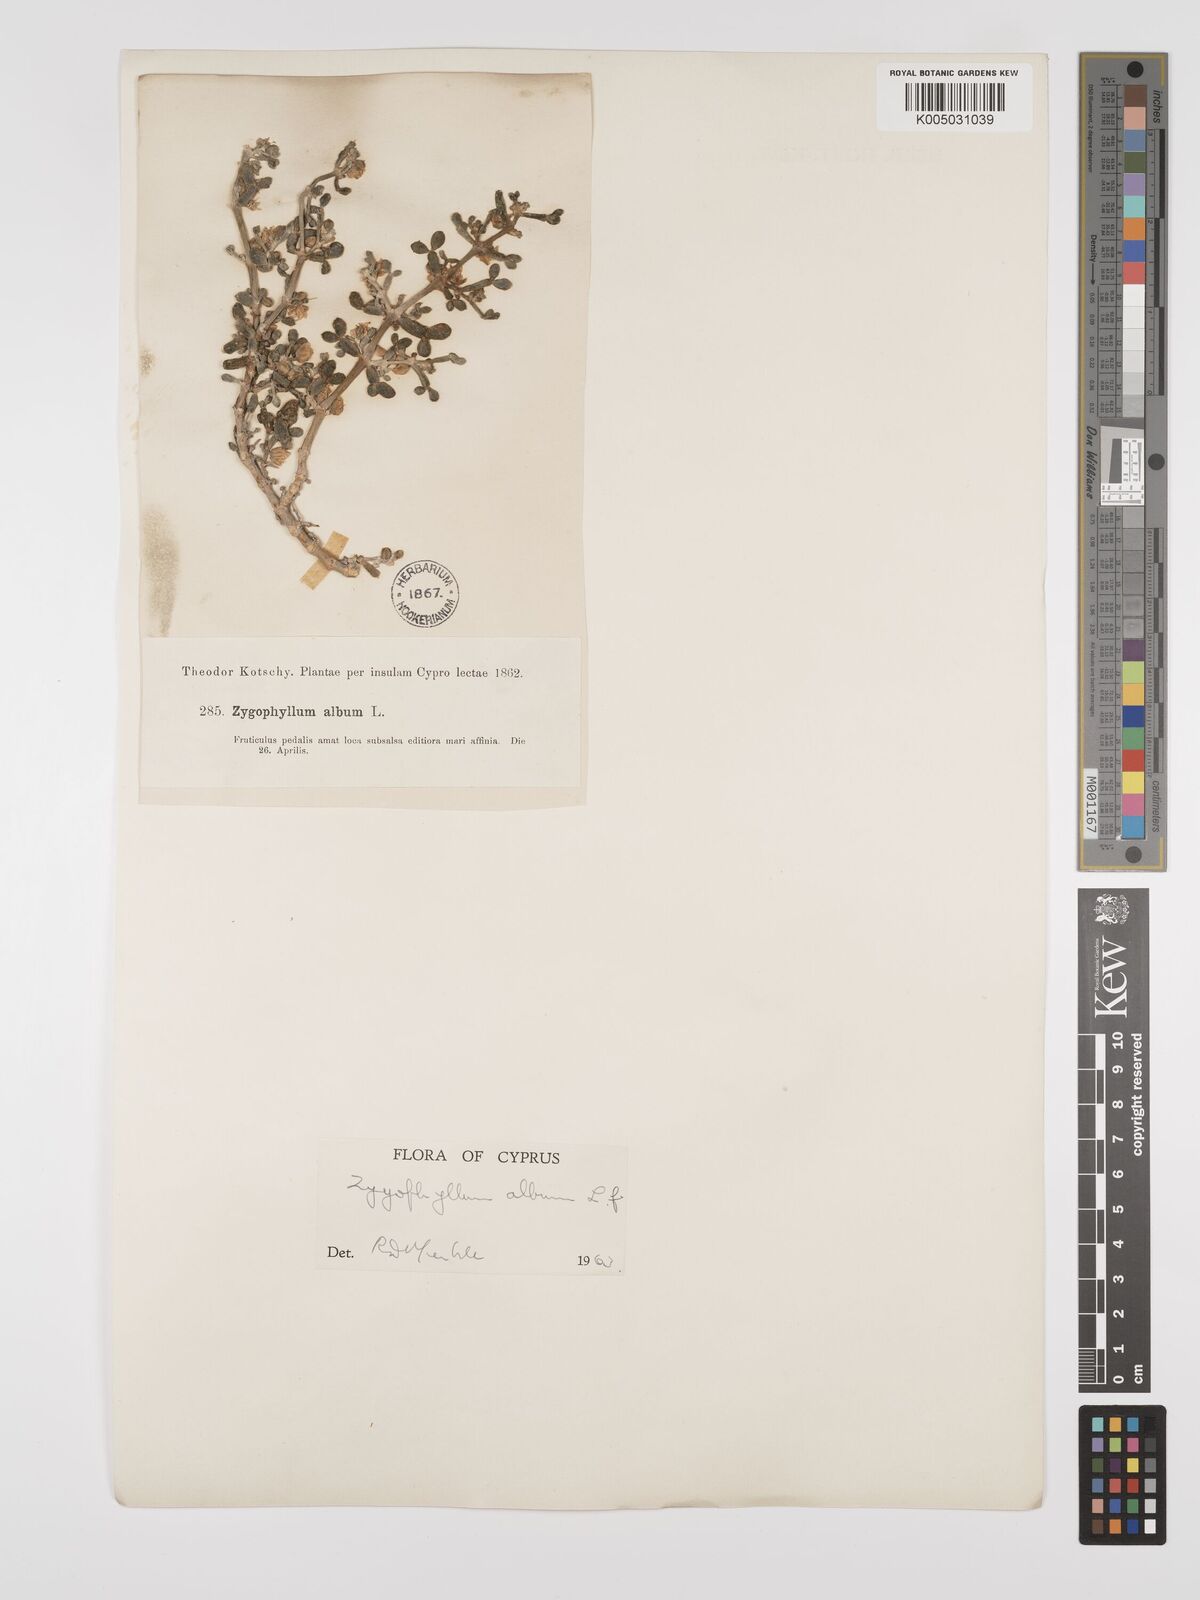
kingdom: Plantae
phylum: Tracheophyta
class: Magnoliopsida
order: Zygophyllales
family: Zygophyllaceae
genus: Zygophyllum
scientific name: Zygophyllum
